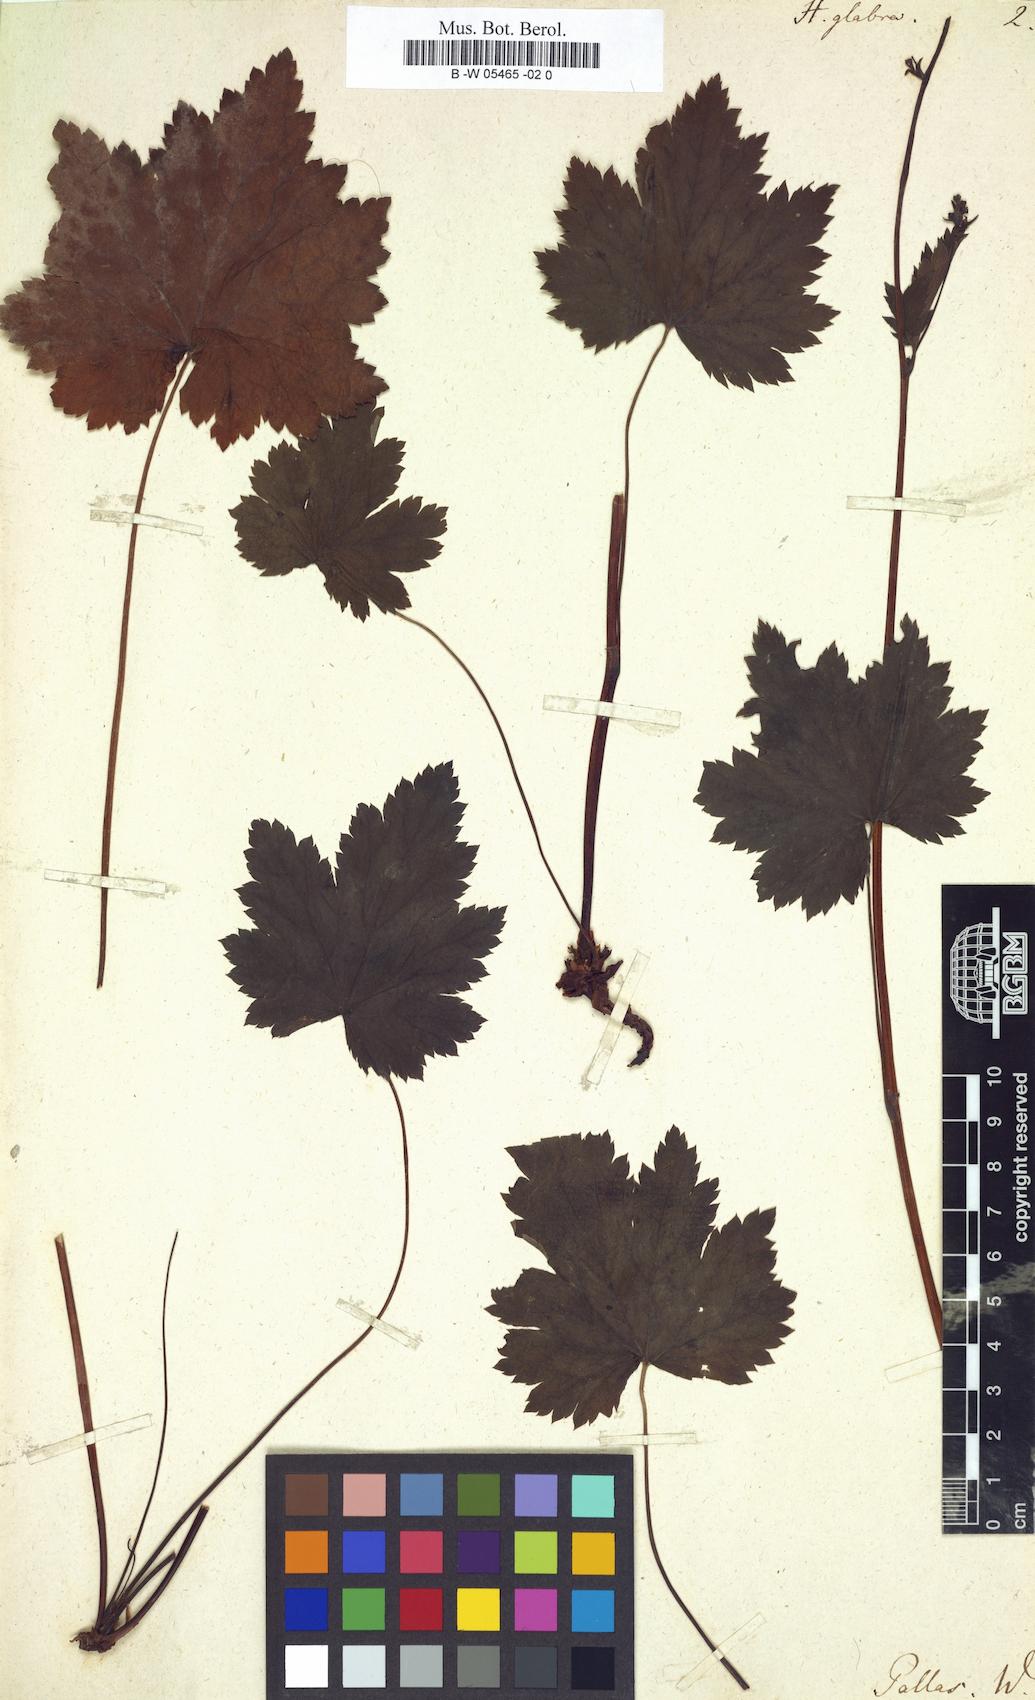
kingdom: Plantae
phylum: Tracheophyta
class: Magnoliopsida
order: Saxifragales
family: Saxifragaceae
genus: Heuchera
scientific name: Heuchera glabra
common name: Alpine alumroot
